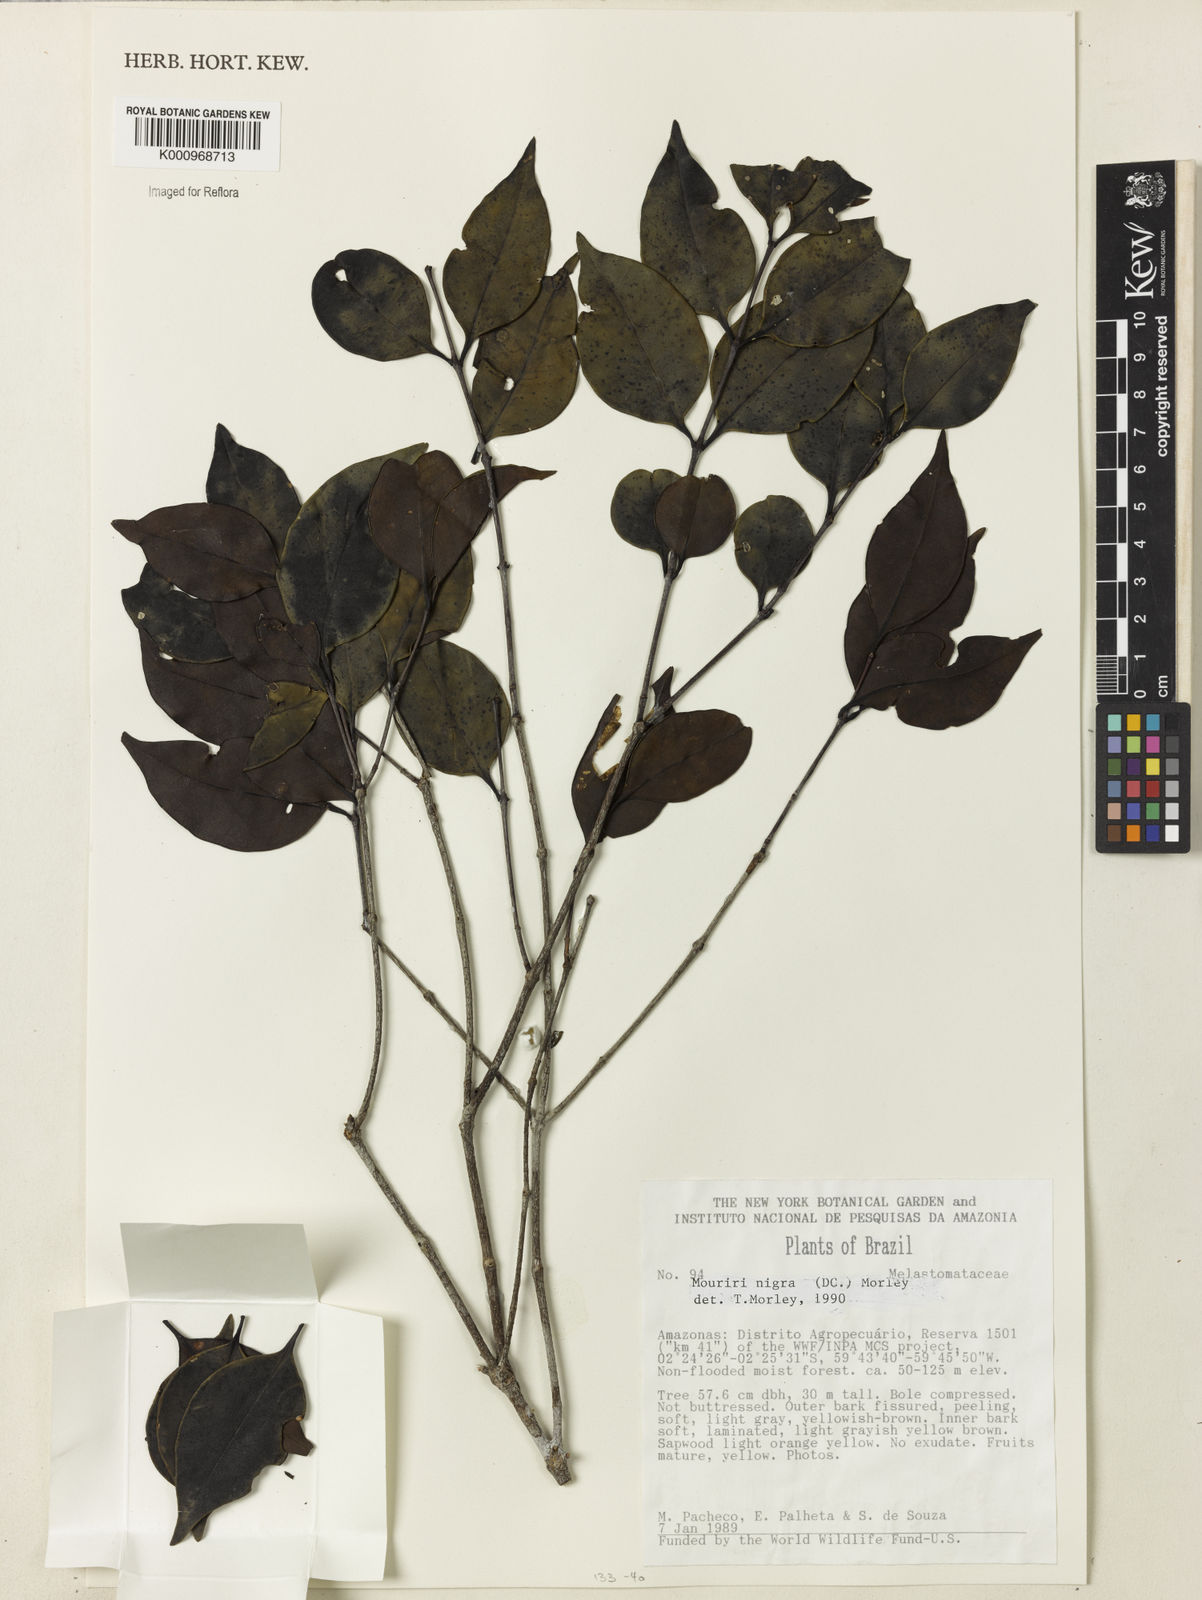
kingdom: Plantae
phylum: Tracheophyta
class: Magnoliopsida
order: Myrtales
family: Melastomataceae
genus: Mouriri
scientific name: Mouriri nigra
